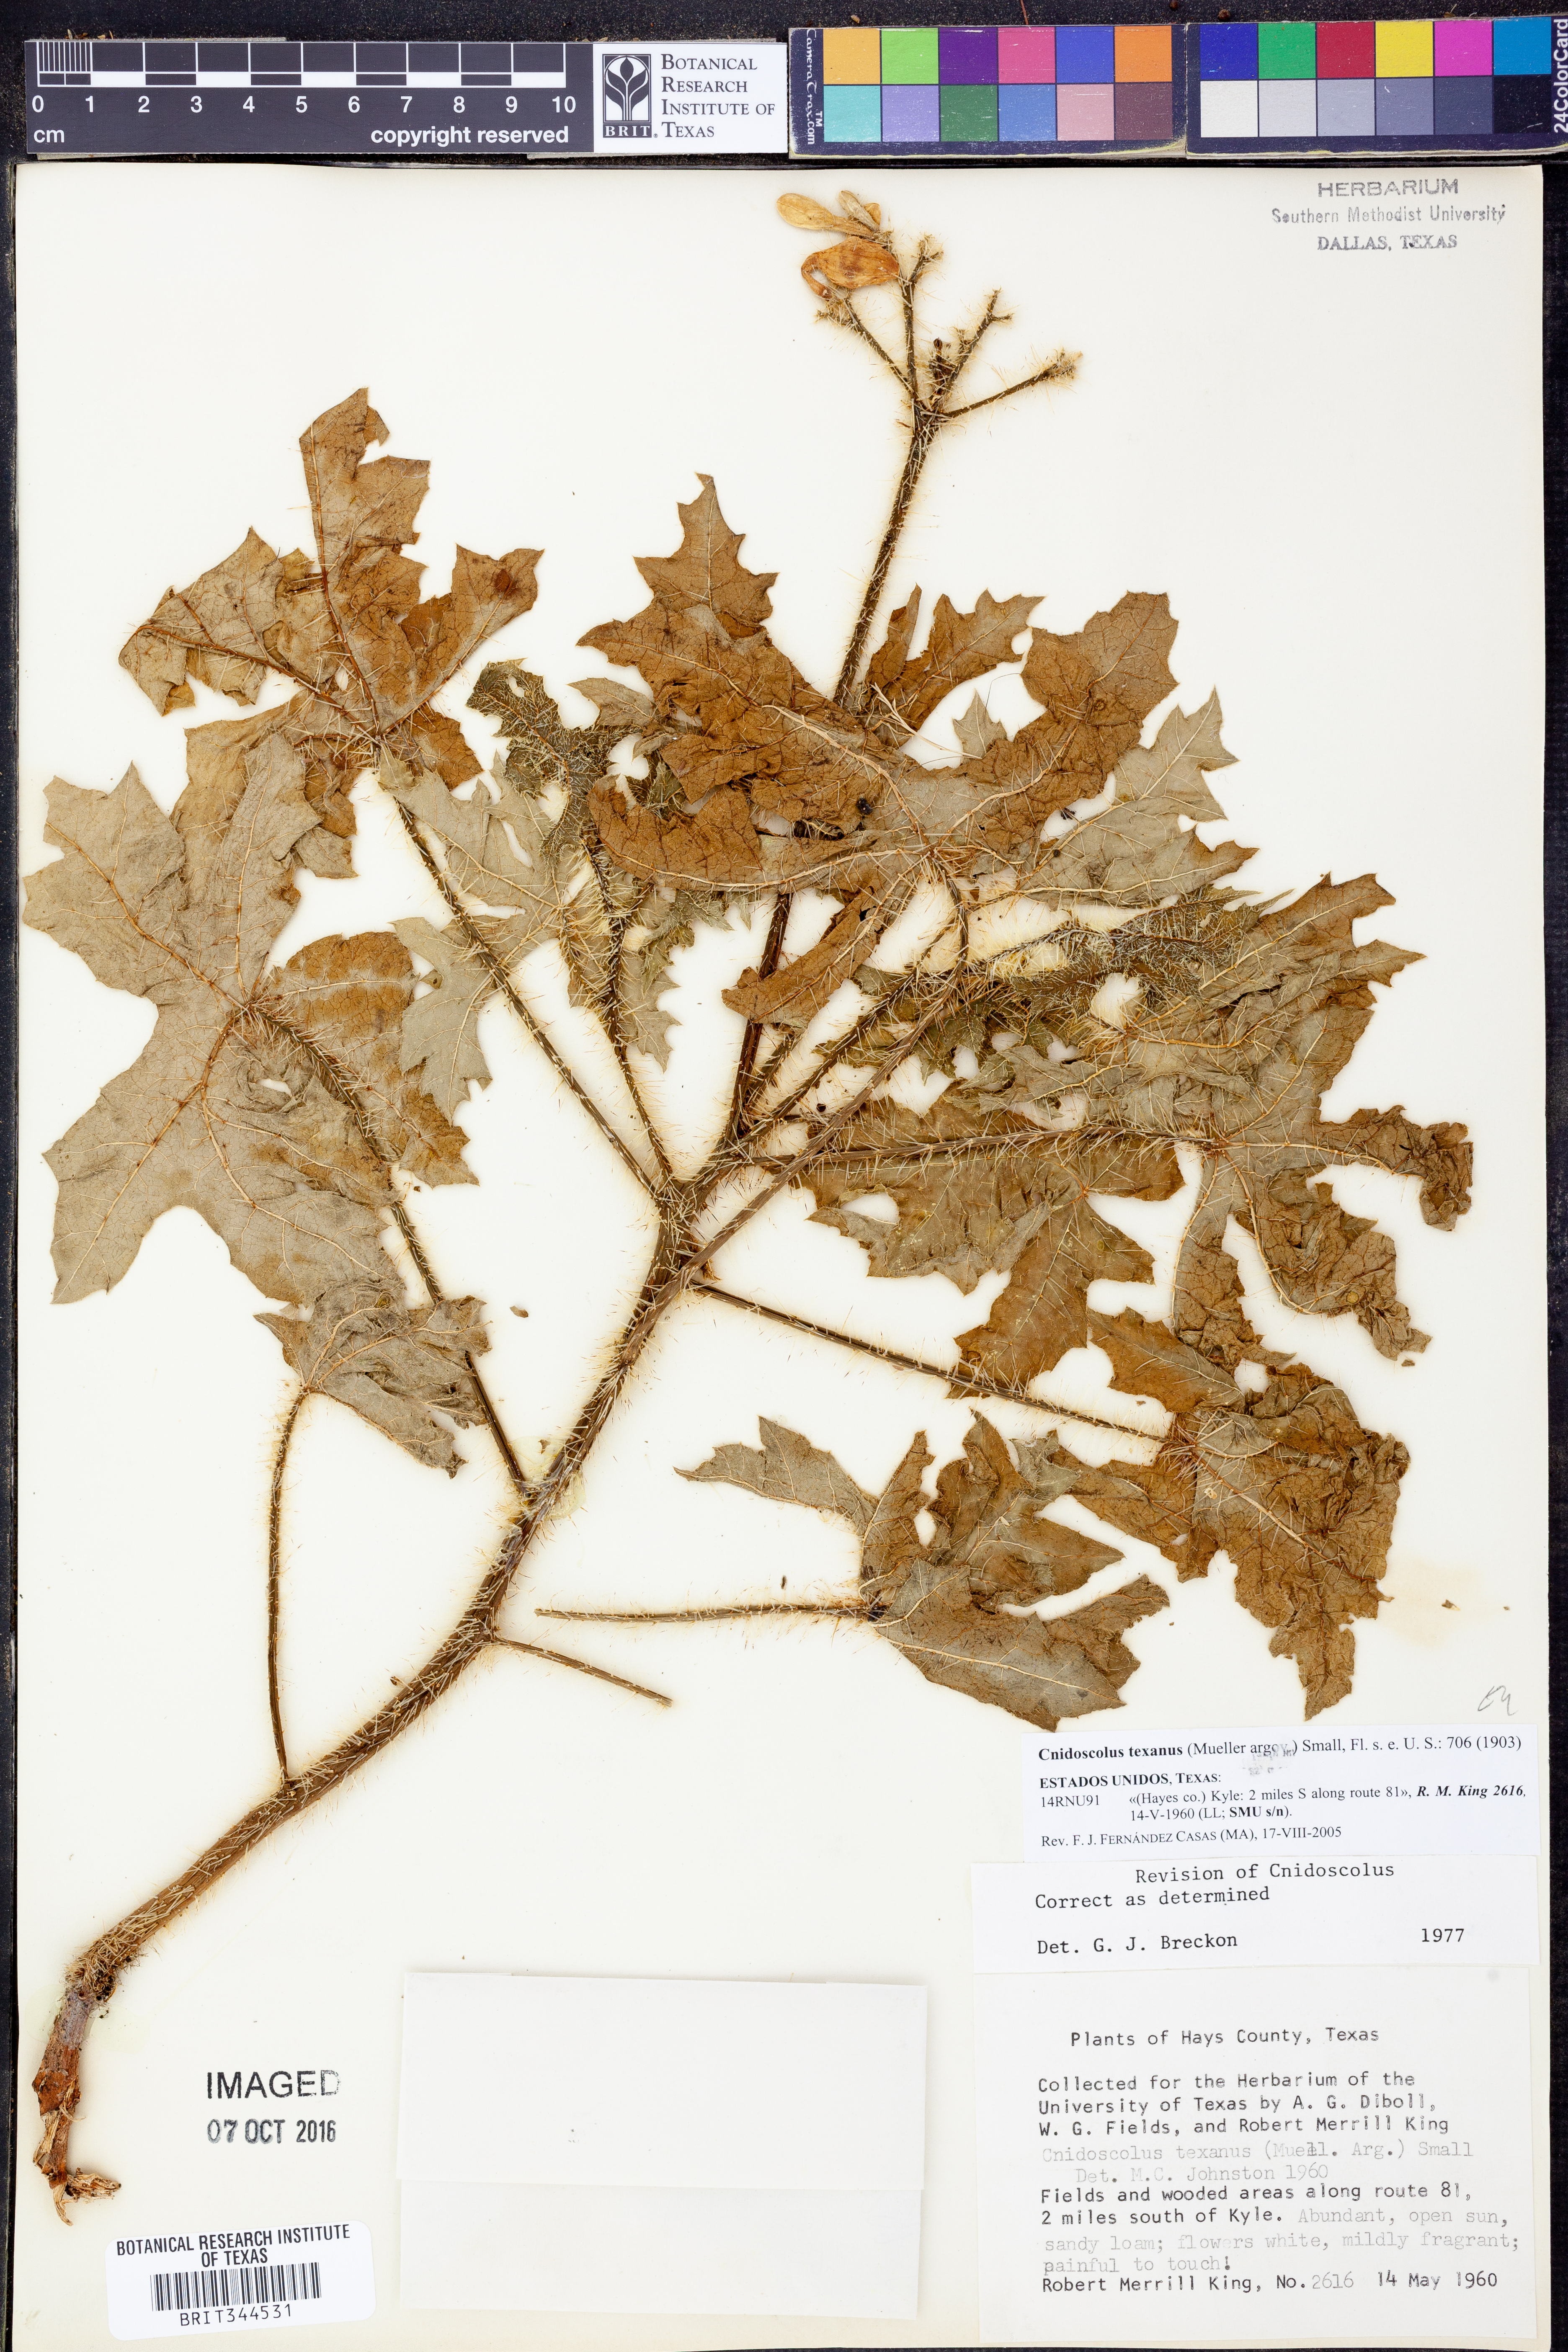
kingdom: Plantae
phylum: Tracheophyta
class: Magnoliopsida
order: Malpighiales
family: Euphorbiaceae
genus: Cnidoscolus
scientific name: Cnidoscolus texanus
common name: Texas bull-nettle
